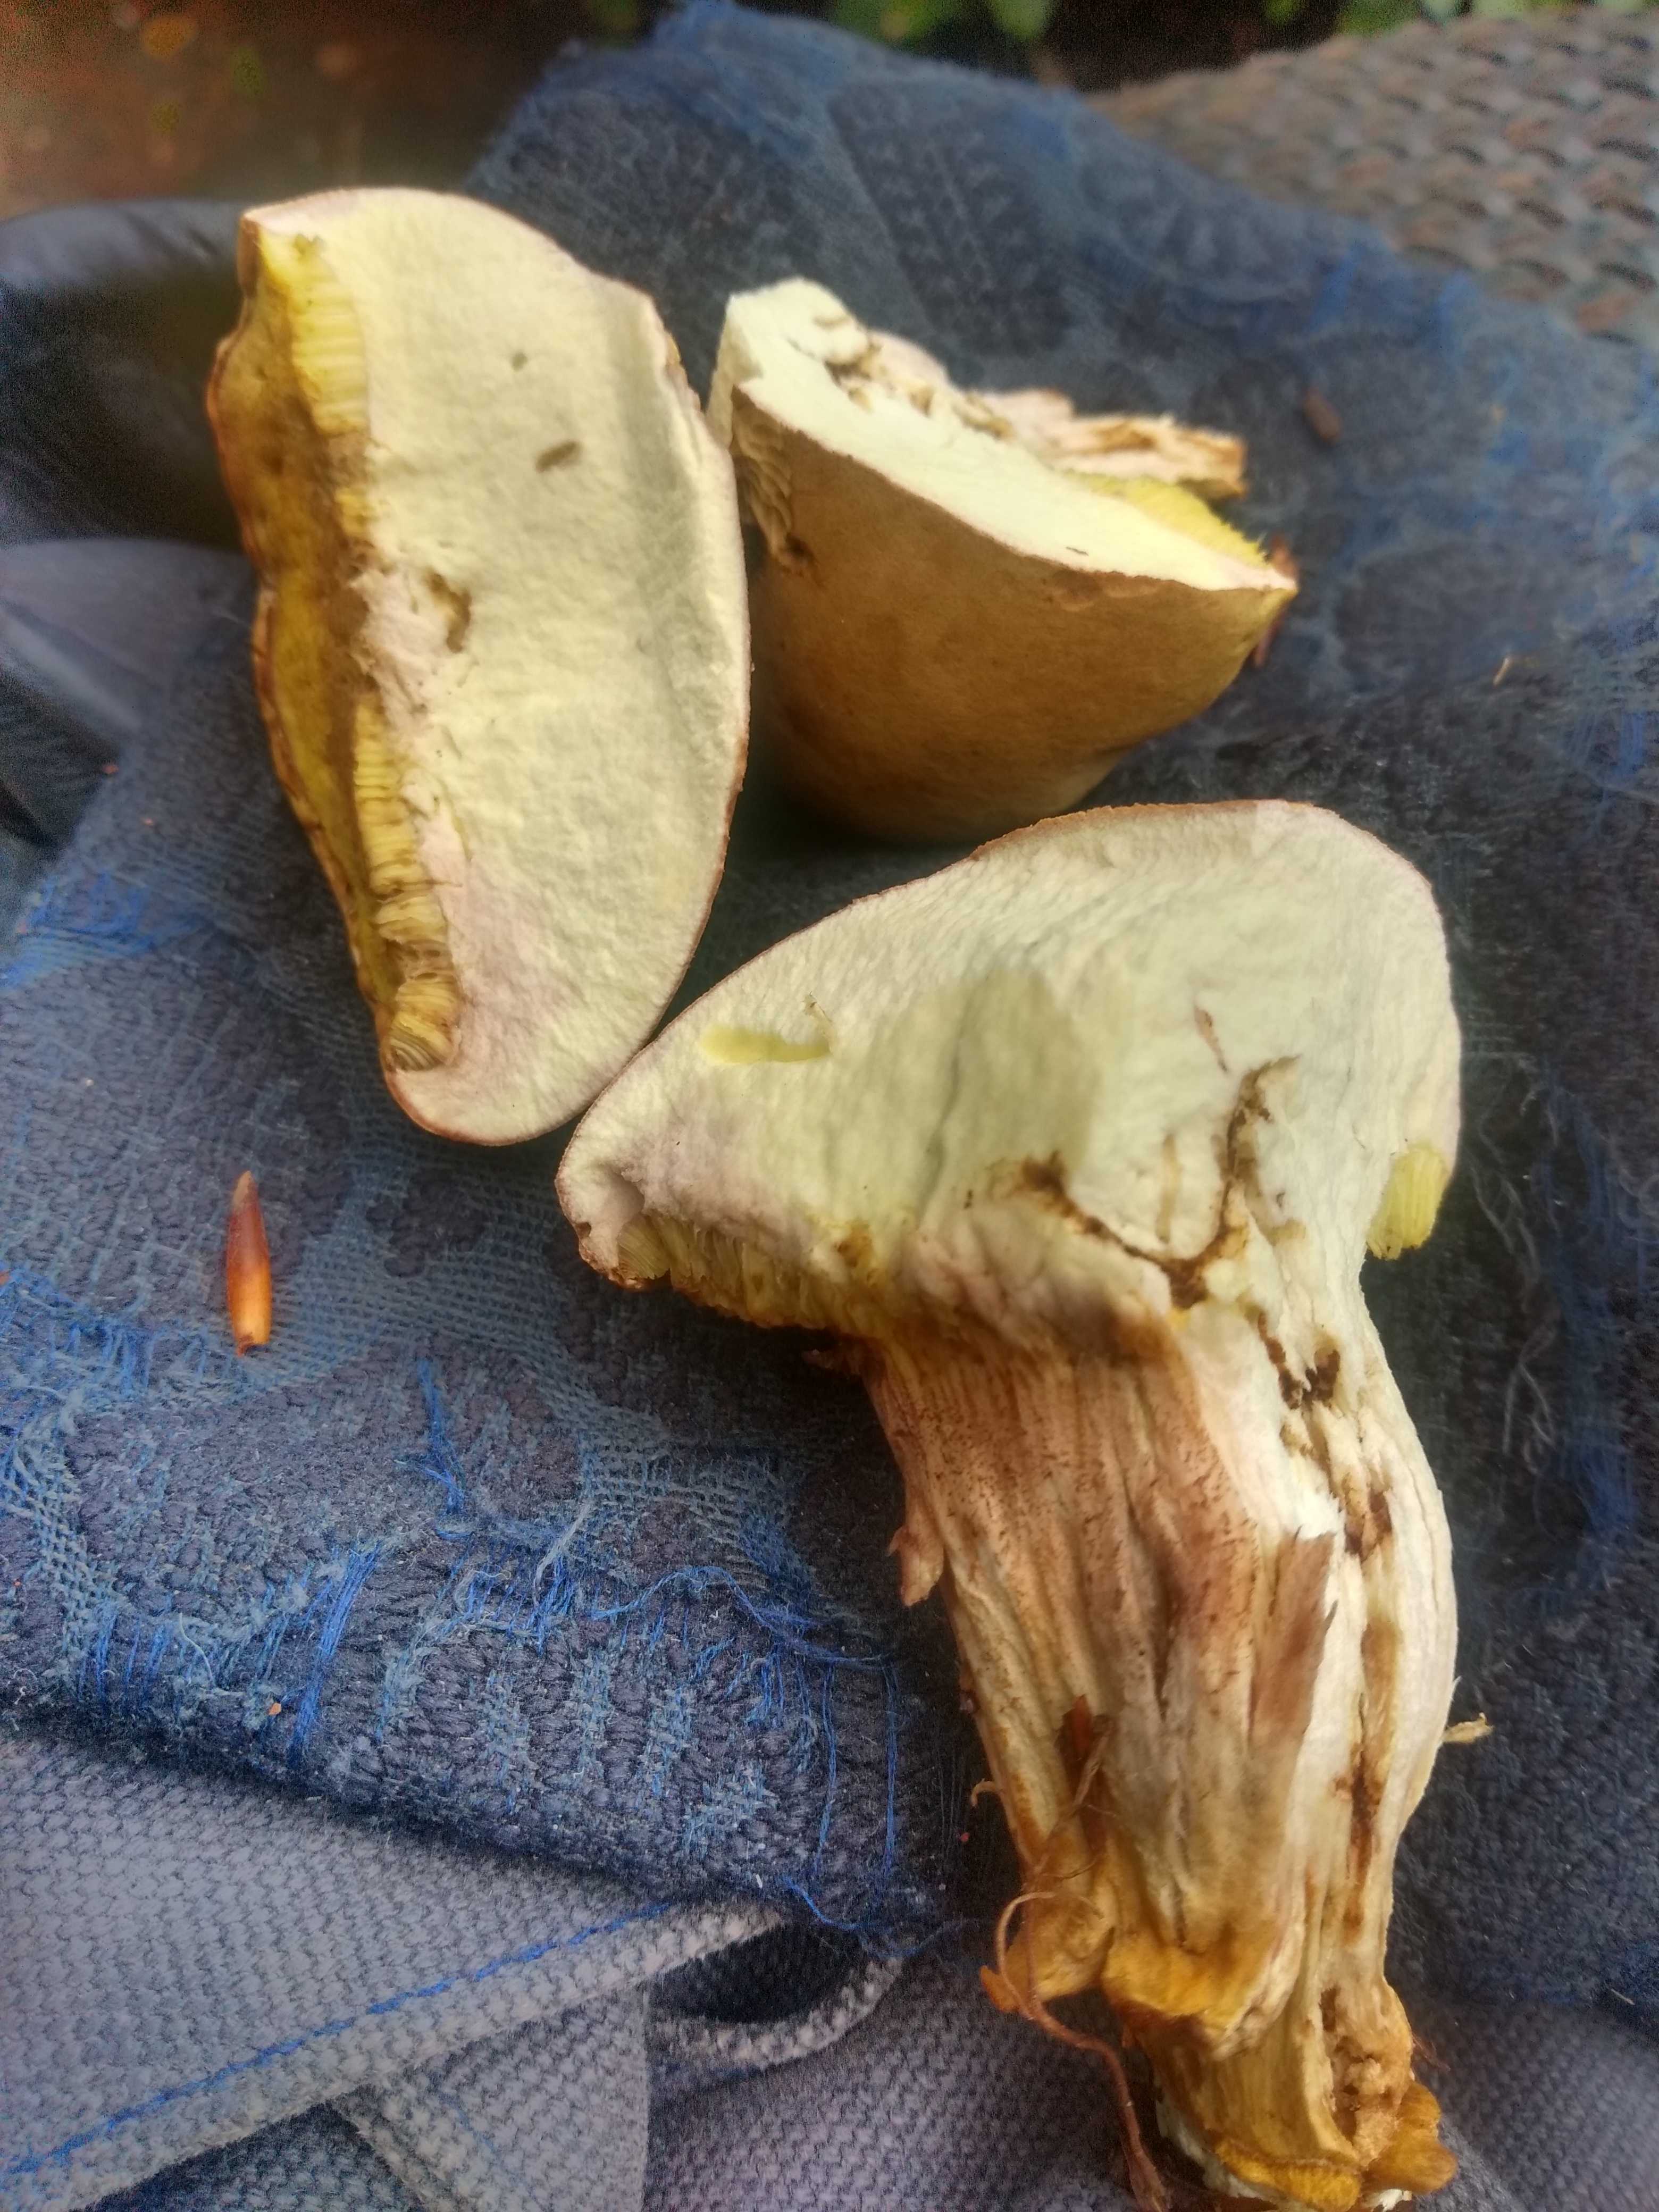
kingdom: Fungi
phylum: Basidiomycota
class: Agaricomycetes
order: Boletales
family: Boletaceae
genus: Xerocomus
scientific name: Xerocomus
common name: filtrørhat
